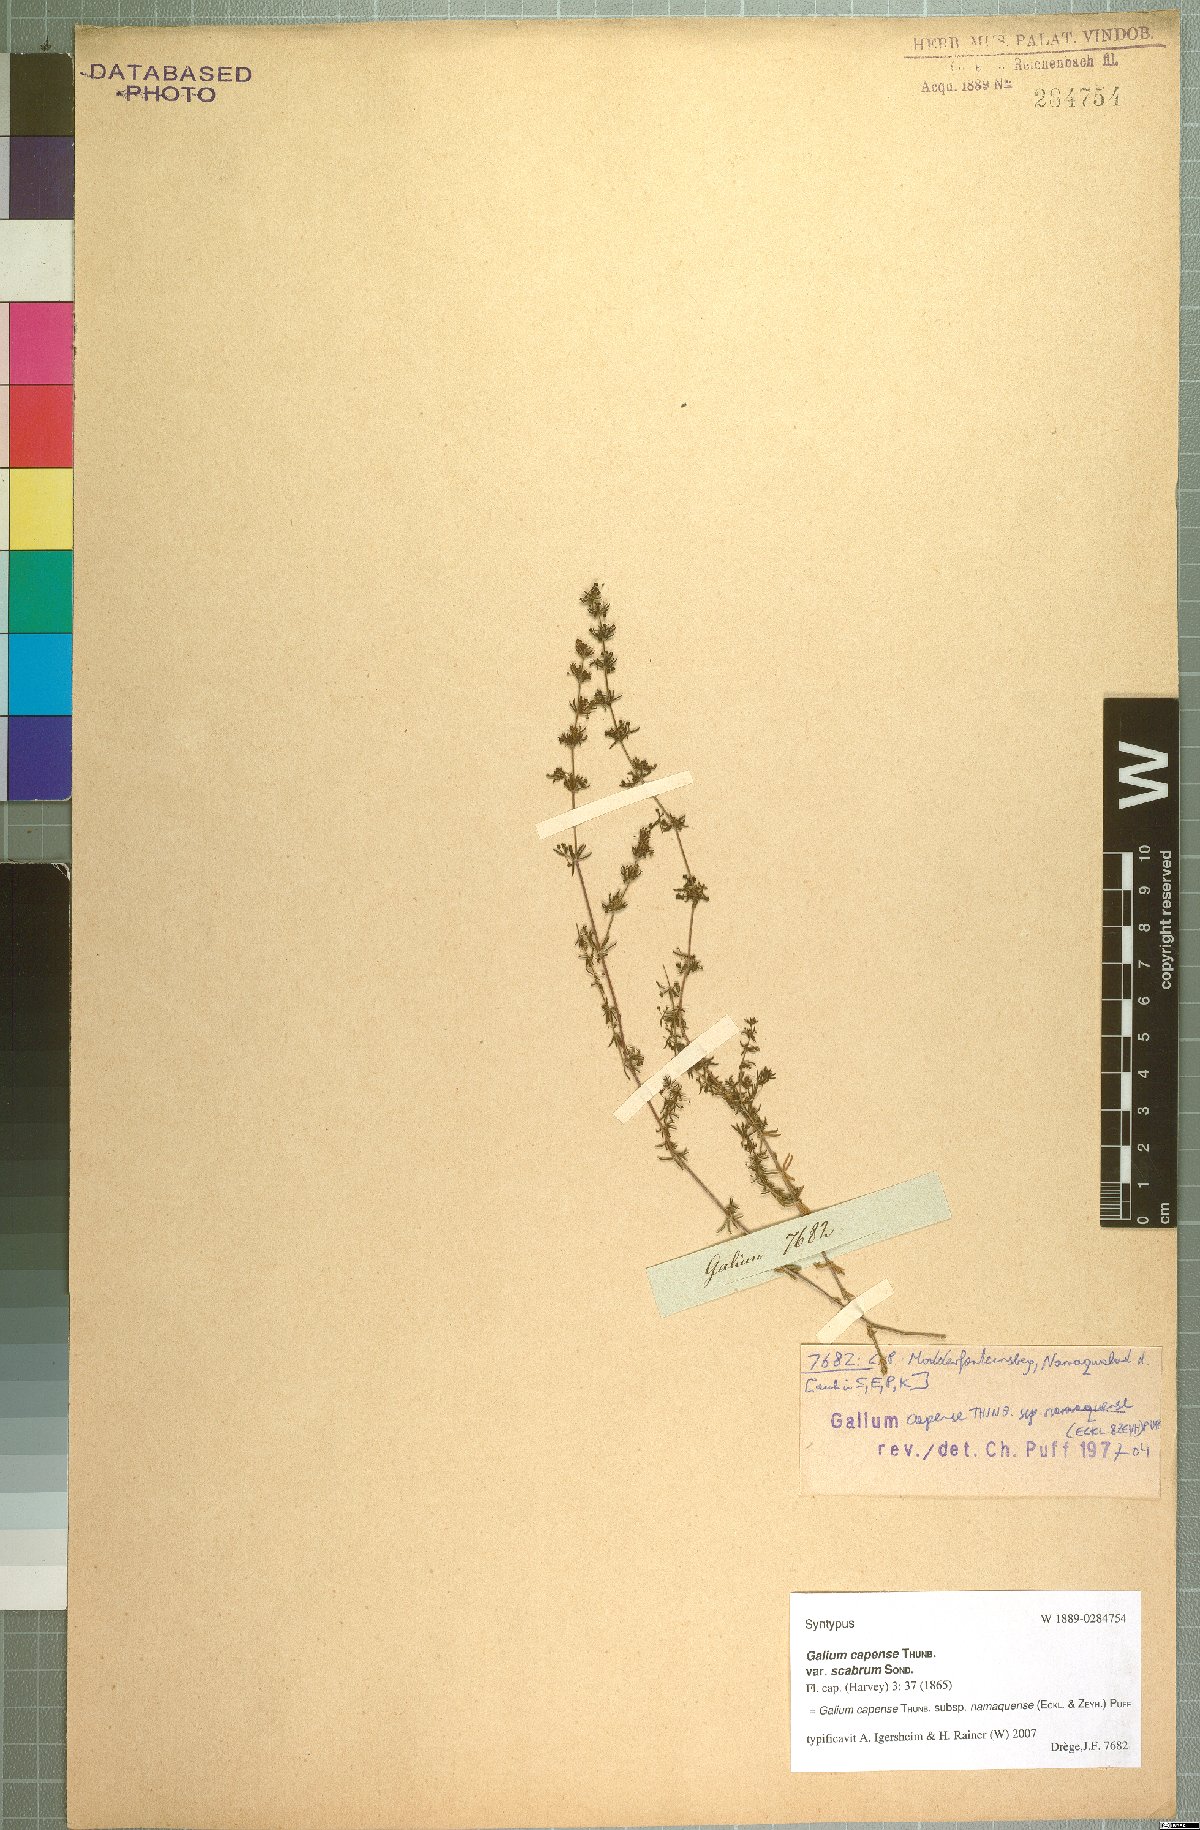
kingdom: Plantae
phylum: Tracheophyta
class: Magnoliopsida
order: Gentianales
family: Rubiaceae
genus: Galium
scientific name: Galium capense
